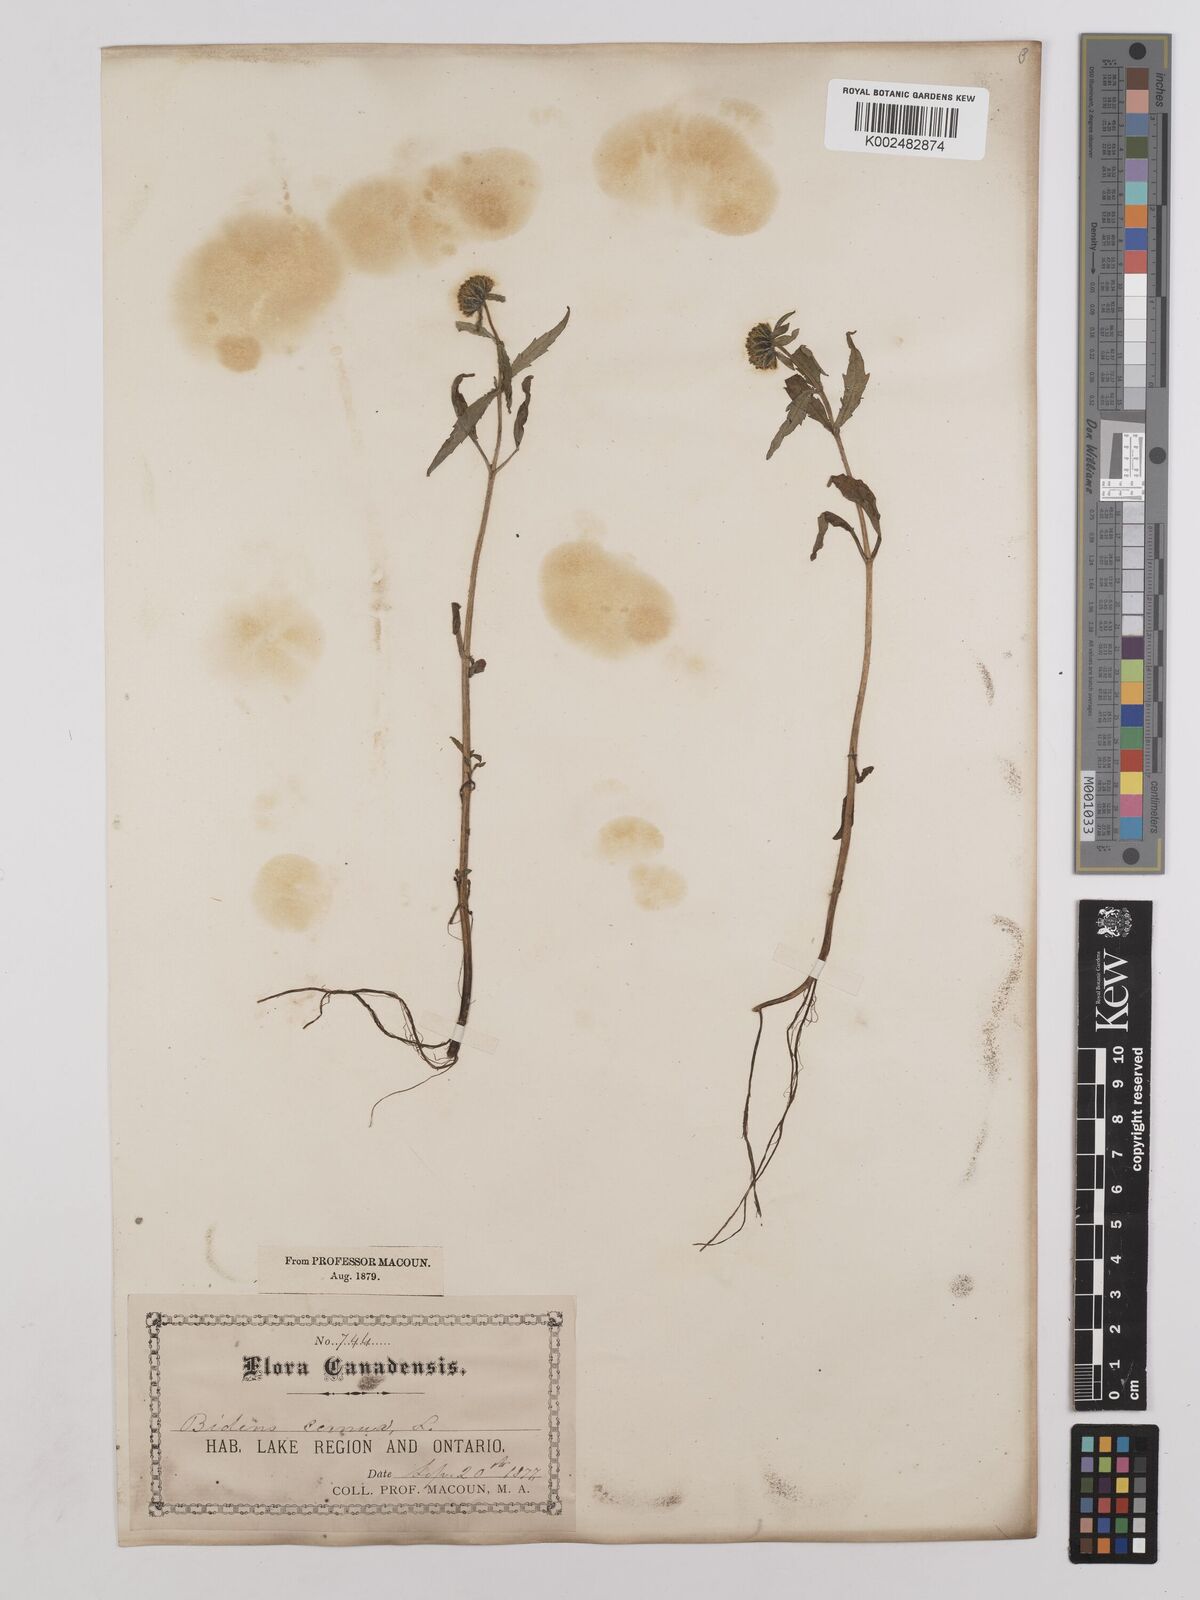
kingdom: Plantae
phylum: Tracheophyta
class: Magnoliopsida
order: Asterales
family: Asteraceae
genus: Bidens
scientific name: Bidens
